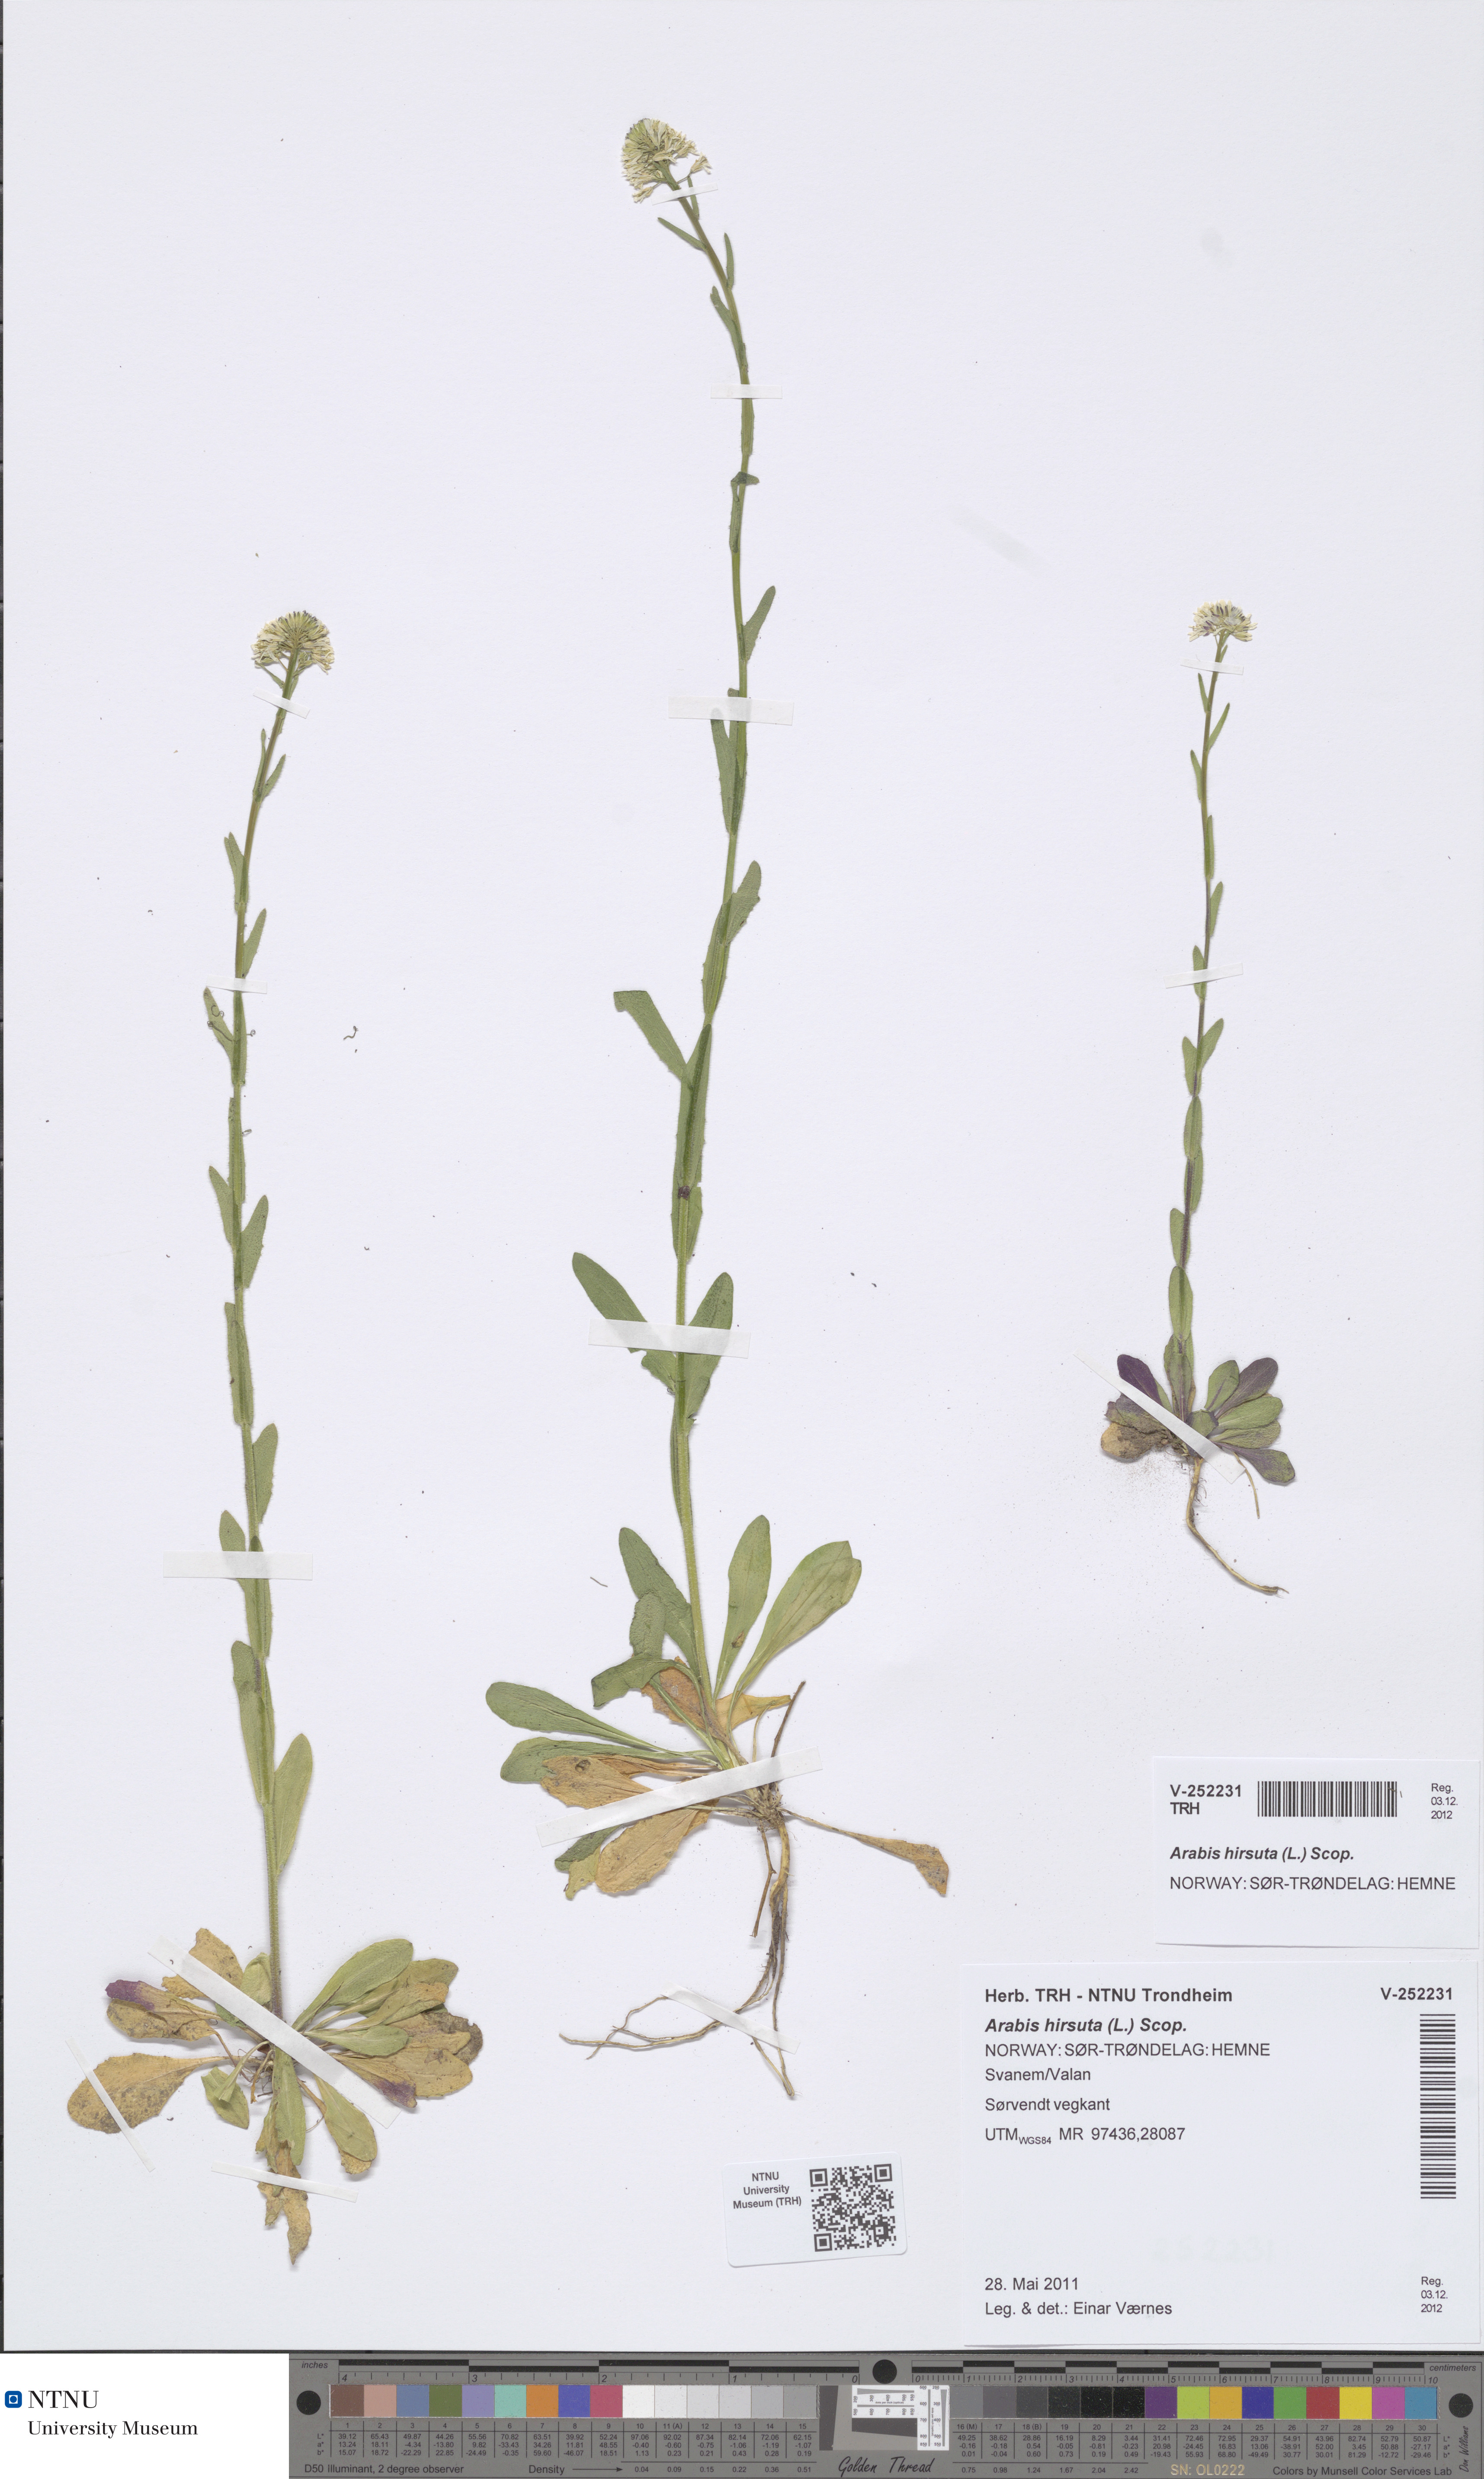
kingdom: Plantae
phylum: Tracheophyta
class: Magnoliopsida
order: Brassicales
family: Brassicaceae
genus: Arabis
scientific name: Arabis hirsuta
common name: Hairy rock-cress
